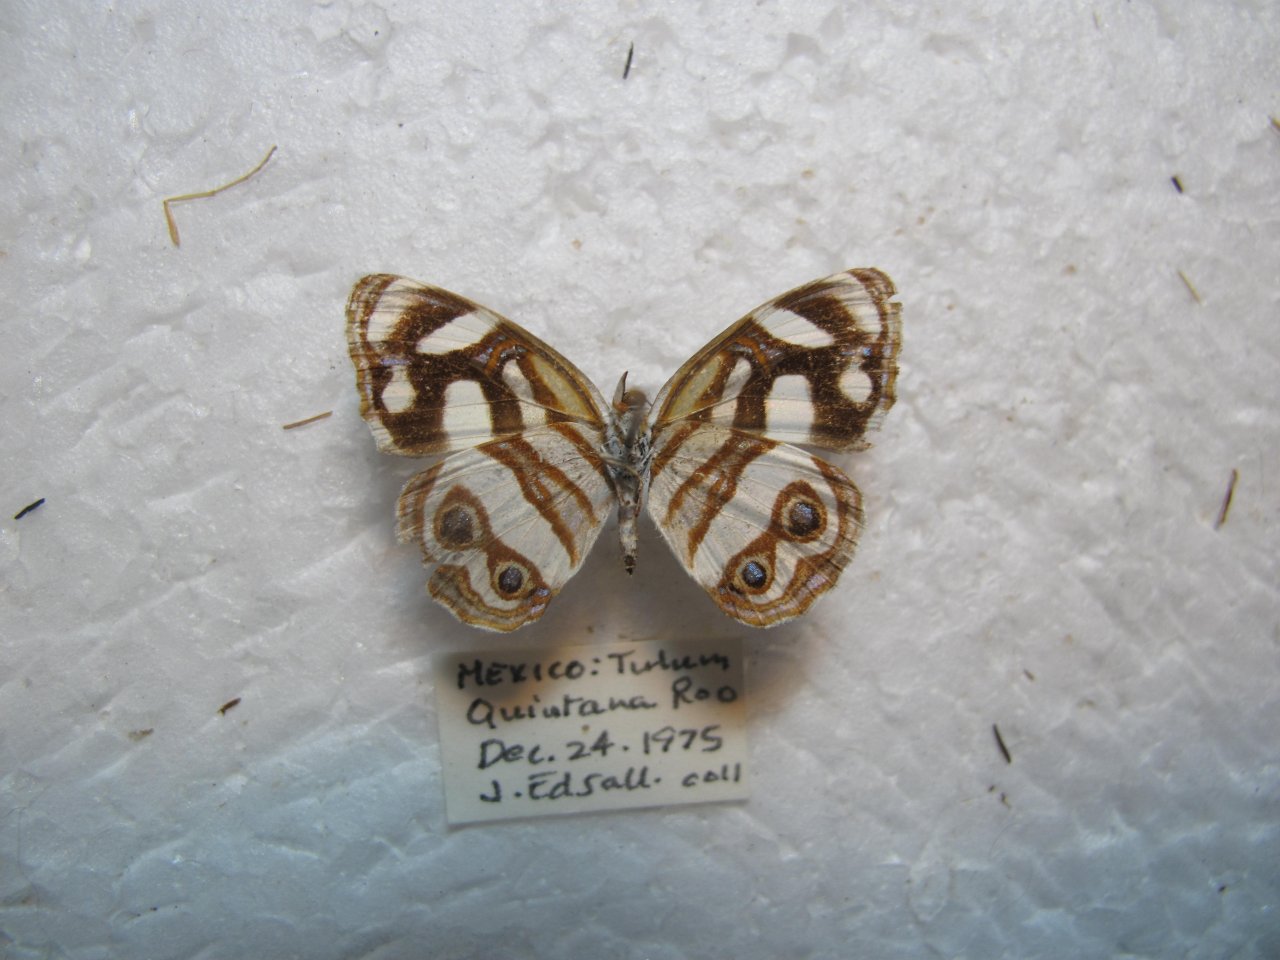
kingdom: Animalia
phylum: Arthropoda
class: Insecta
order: Lepidoptera
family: Nymphalidae
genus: Dynamine
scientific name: Dynamine dyonis
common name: Blue-eyed Sailor
